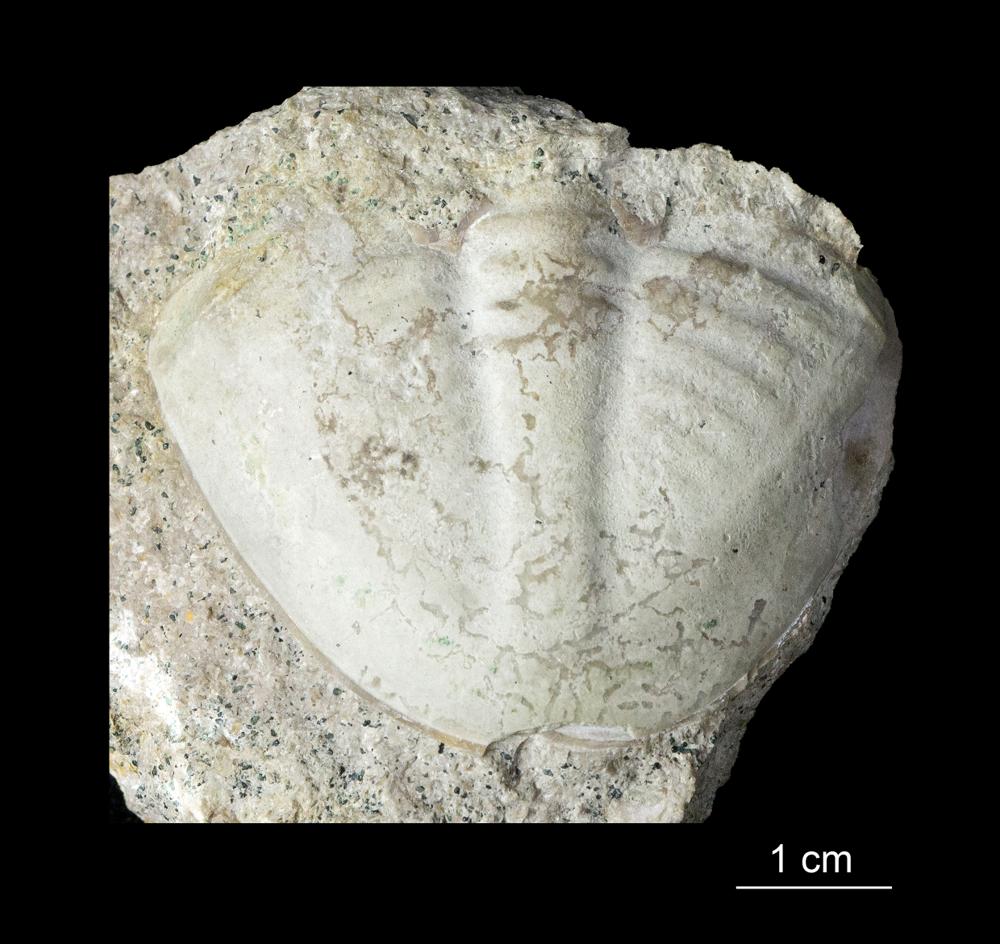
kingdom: Animalia
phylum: Arthropoda
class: Trilobita
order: Asaphida
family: Asaphidae
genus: Megistaspis
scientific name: Megistaspis
